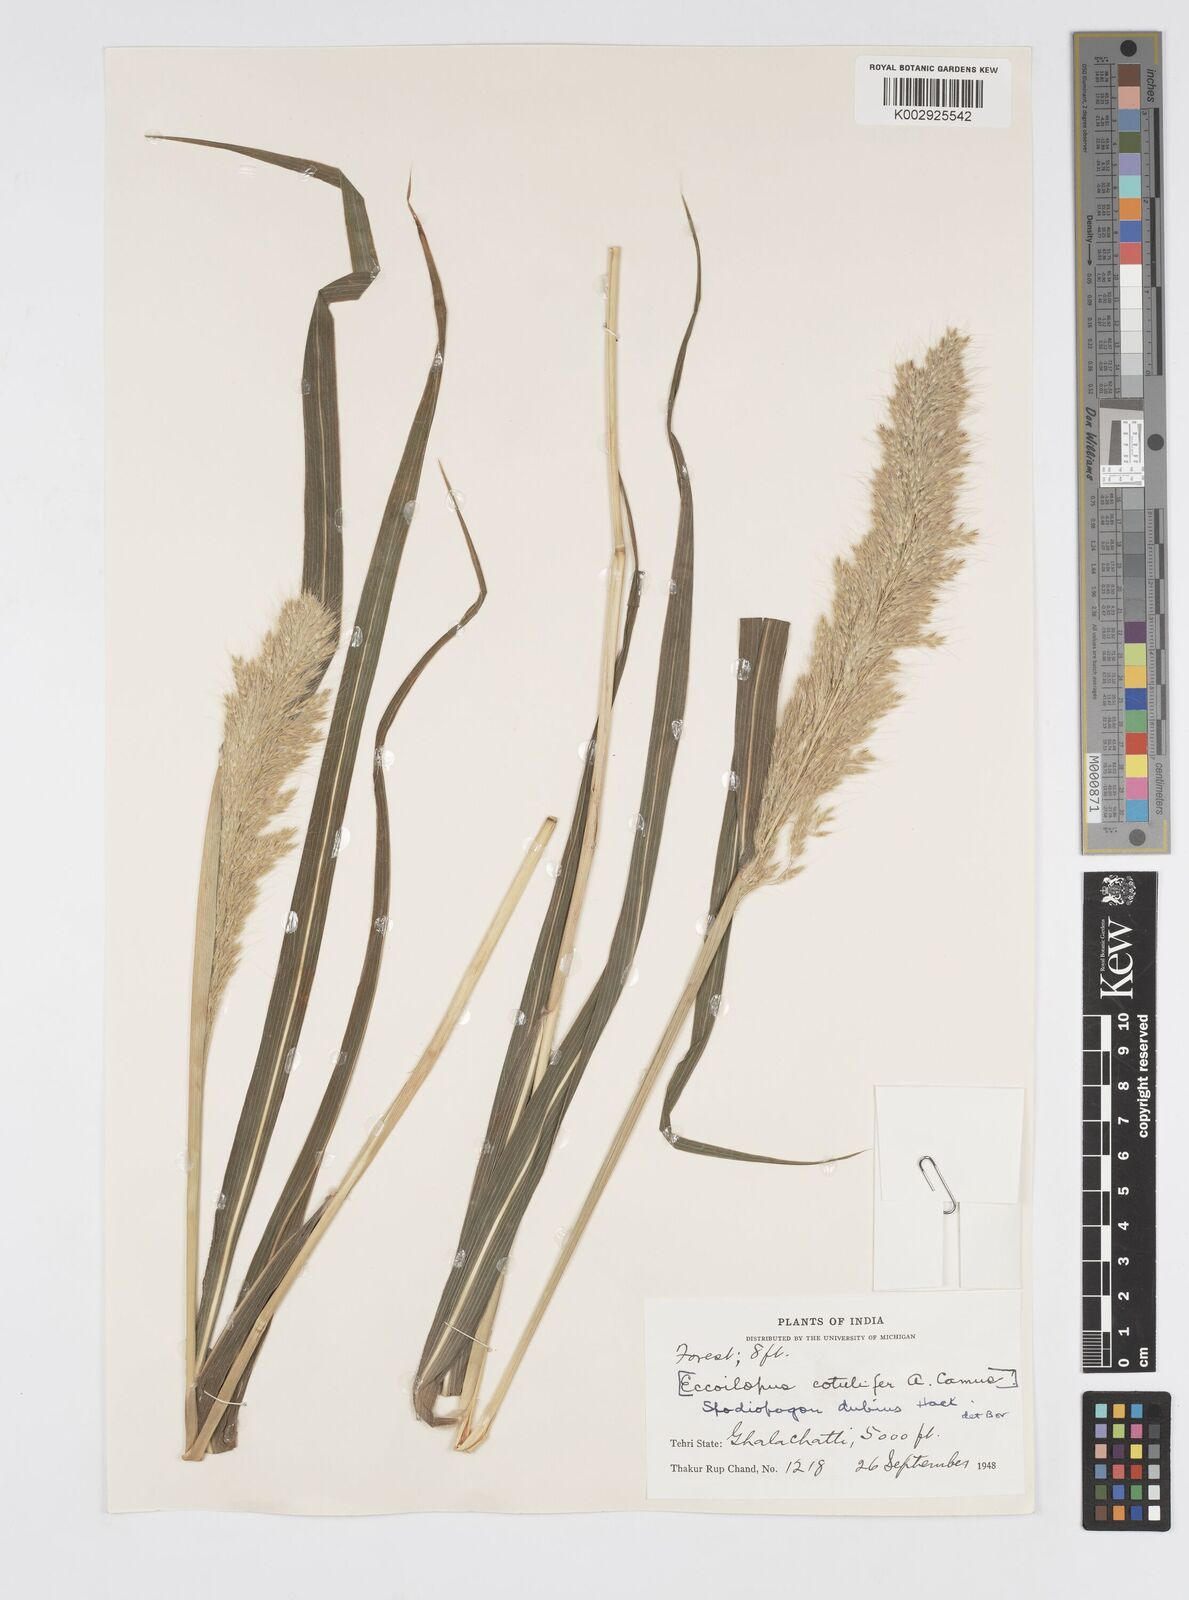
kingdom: Plantae
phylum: Tracheophyta
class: Liliopsida
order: Poales
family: Poaceae
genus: Spodiopogon
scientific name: Spodiopogon cotulifer
